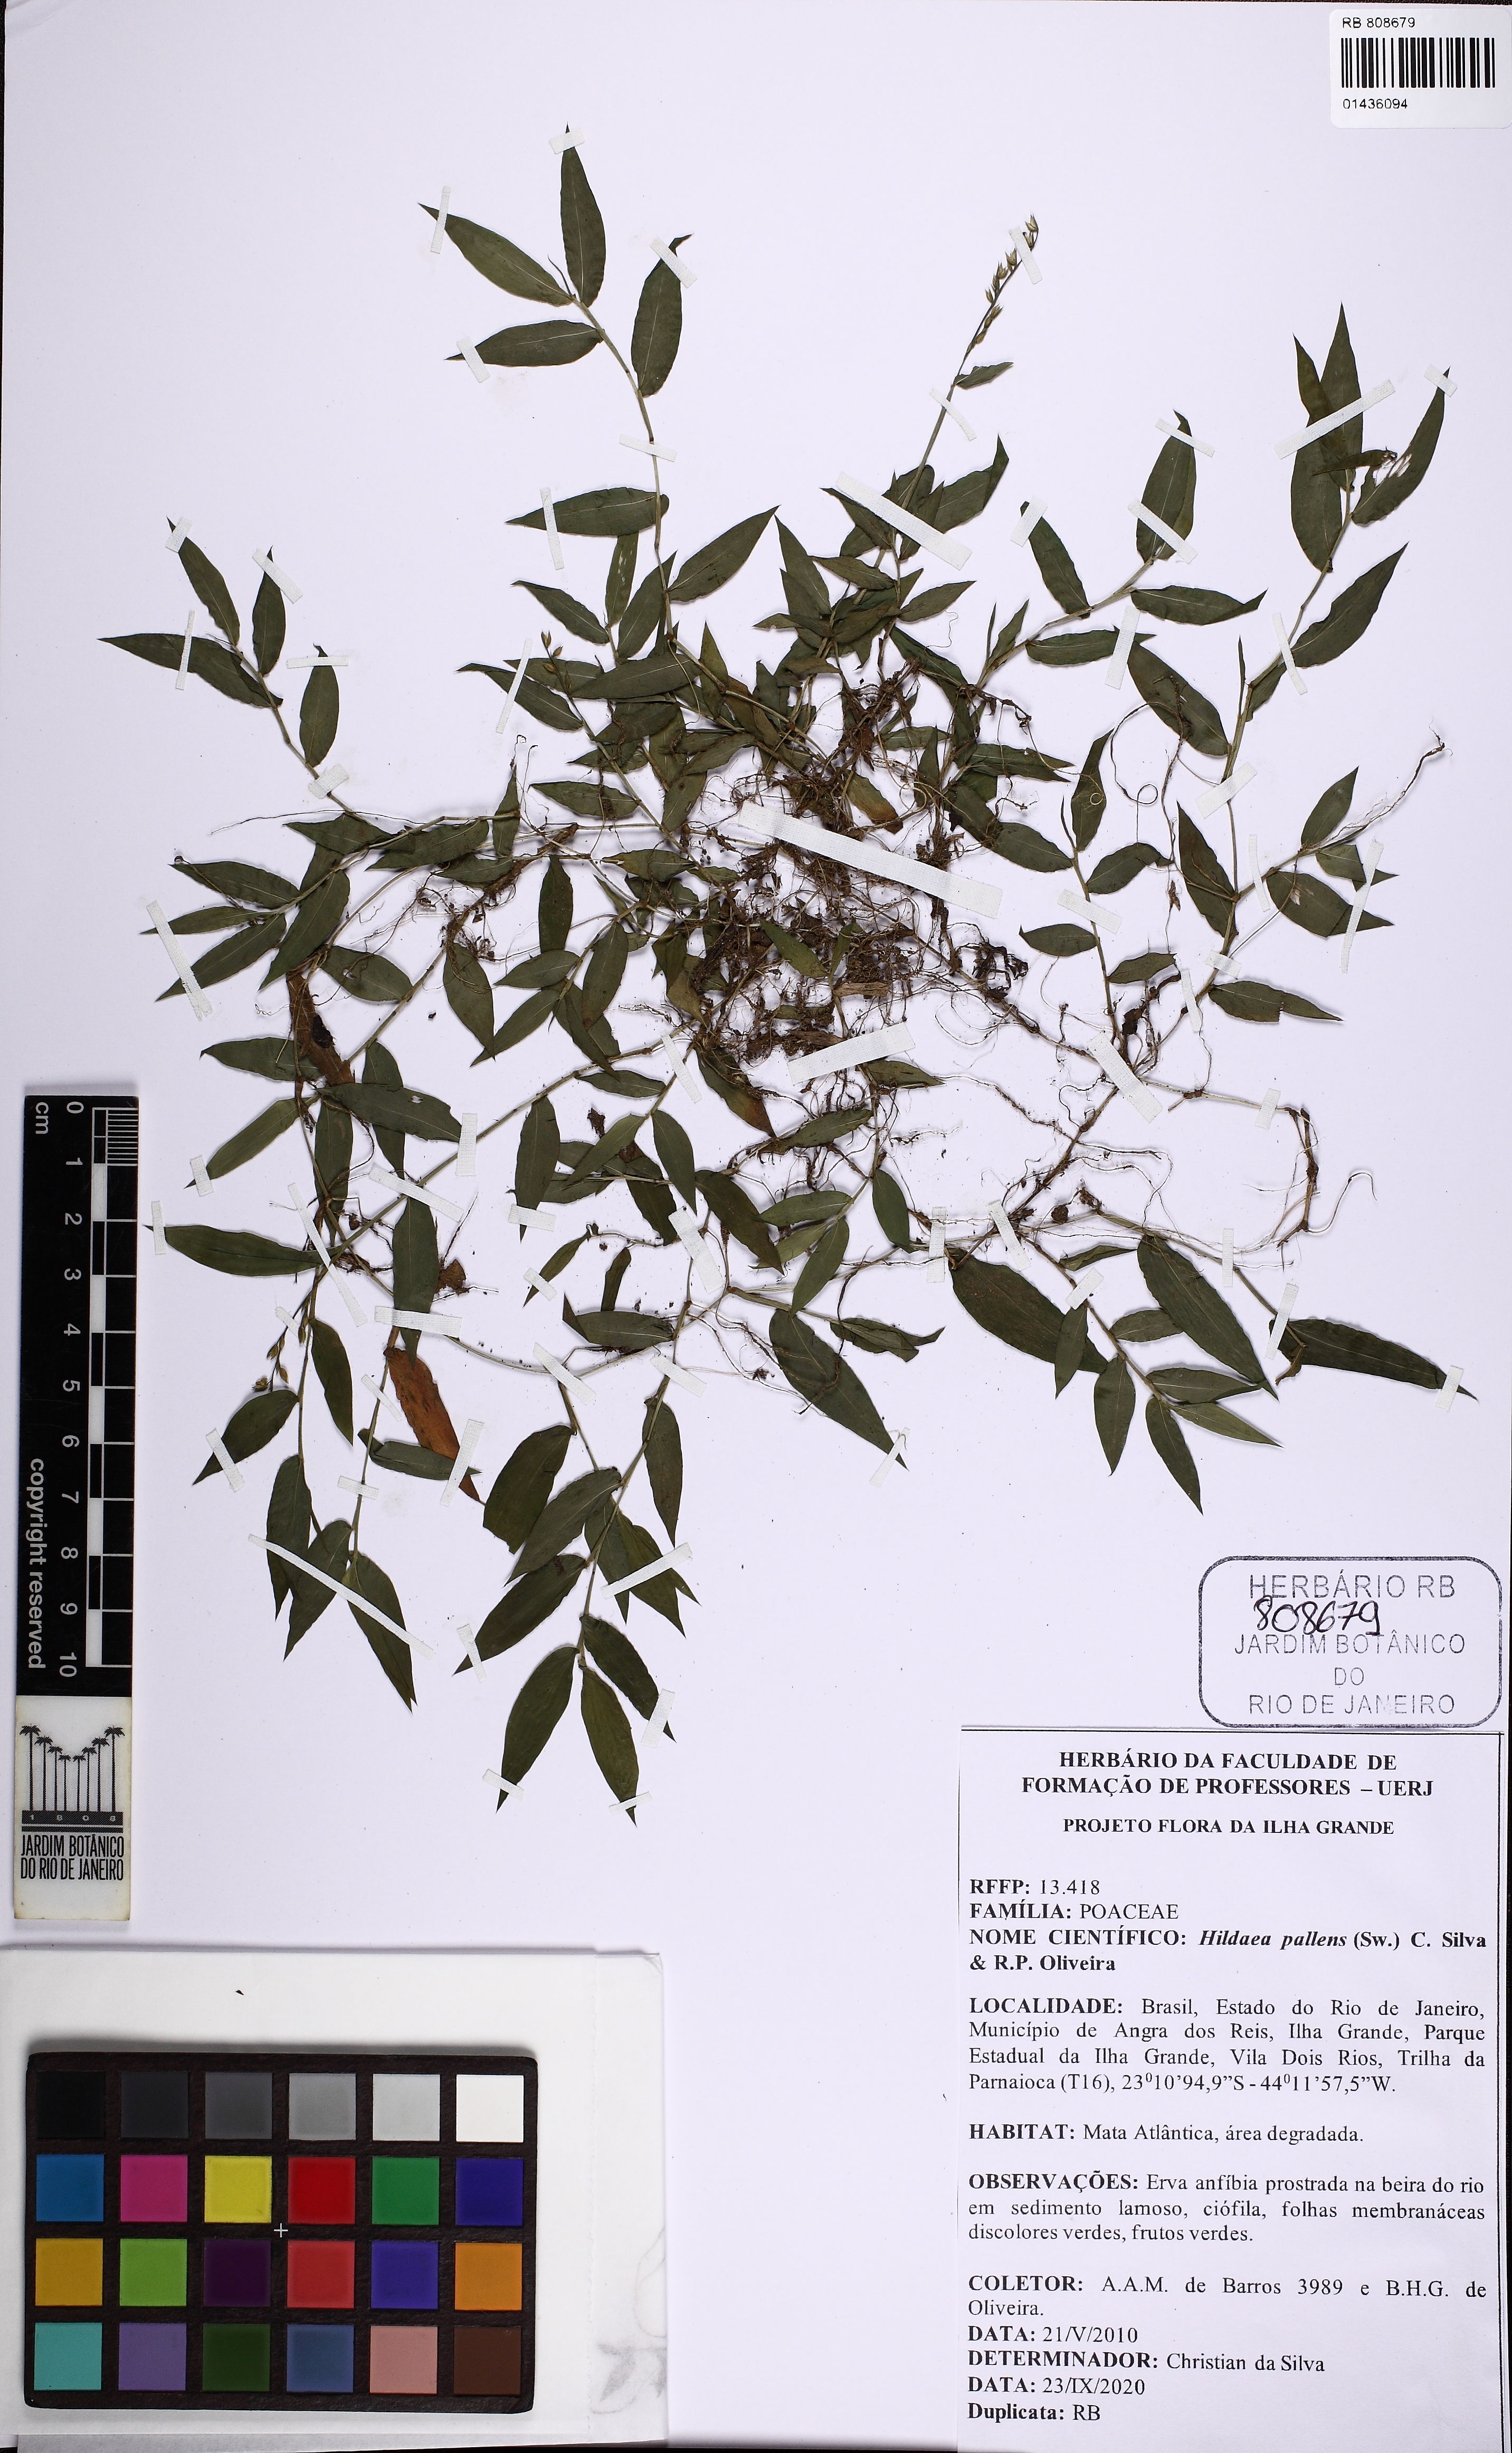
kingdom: Plantae
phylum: Tracheophyta
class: Liliopsida
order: Poales
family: Poaceae
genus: Ichnanthus
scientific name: Ichnanthus pallens
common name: Water grass
